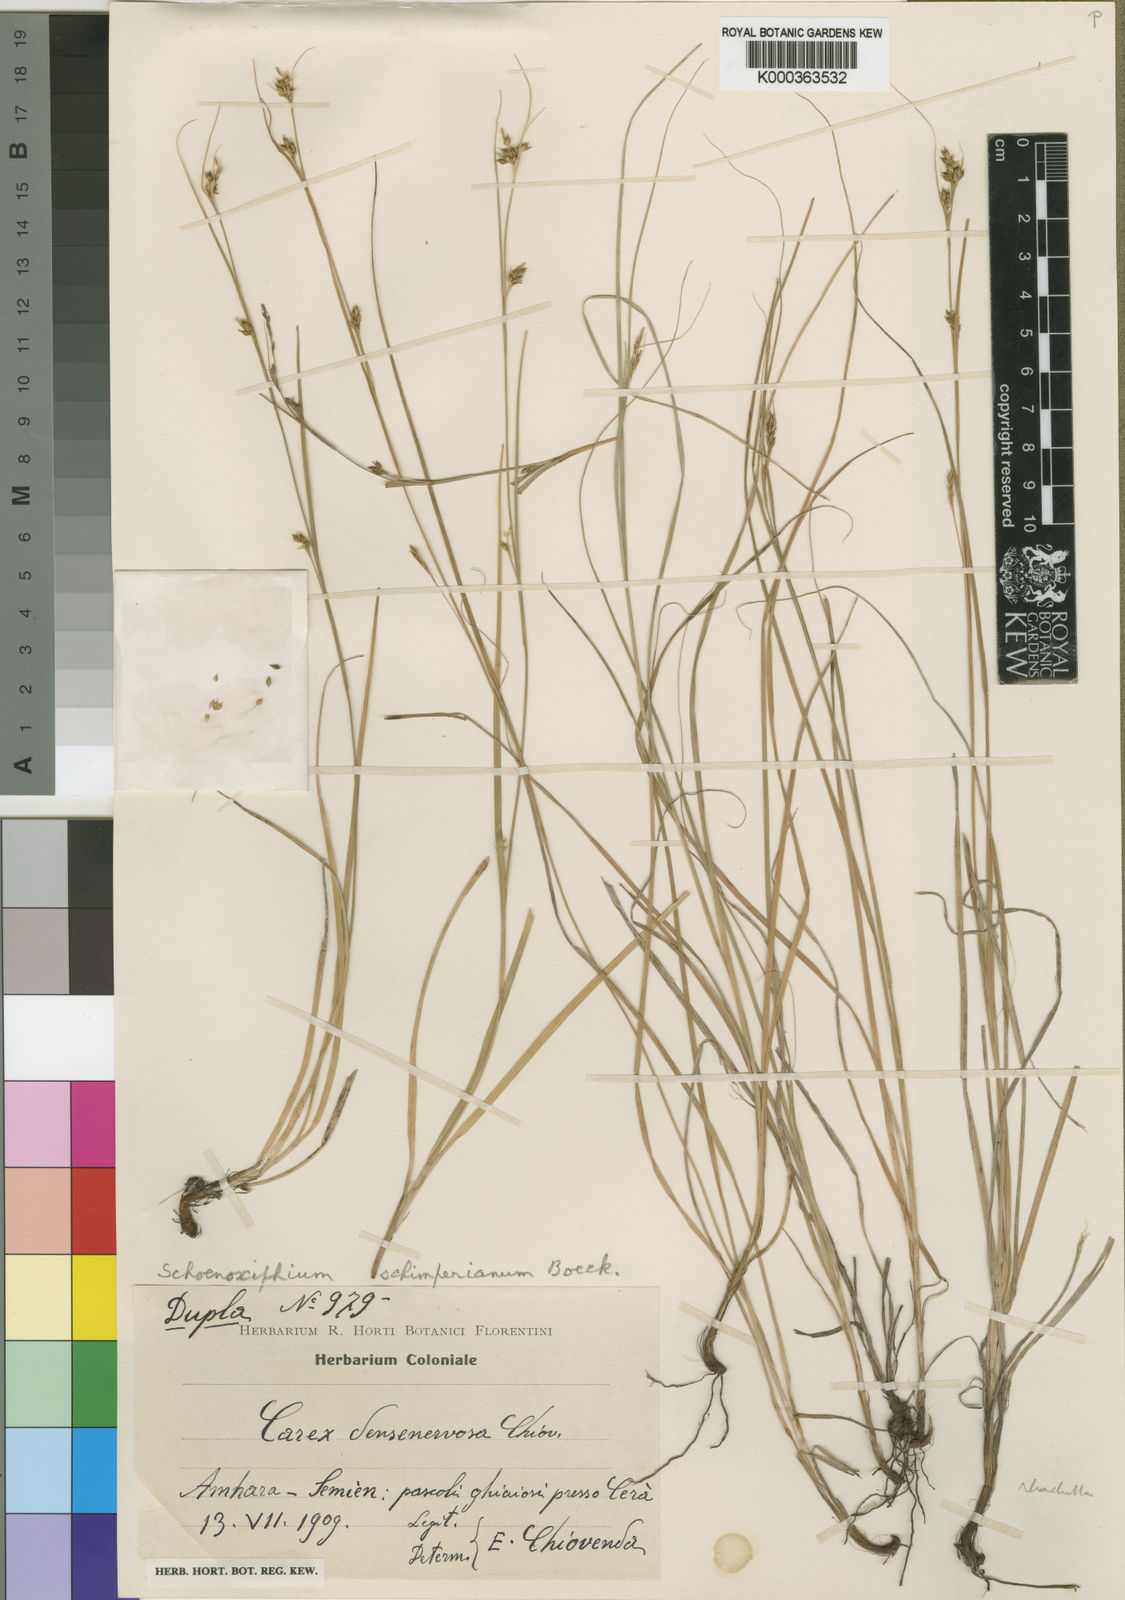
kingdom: Plantae
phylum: Tracheophyta
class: Liliopsida
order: Poales
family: Cyperaceae
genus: Carex
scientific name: Carex schimperiana
